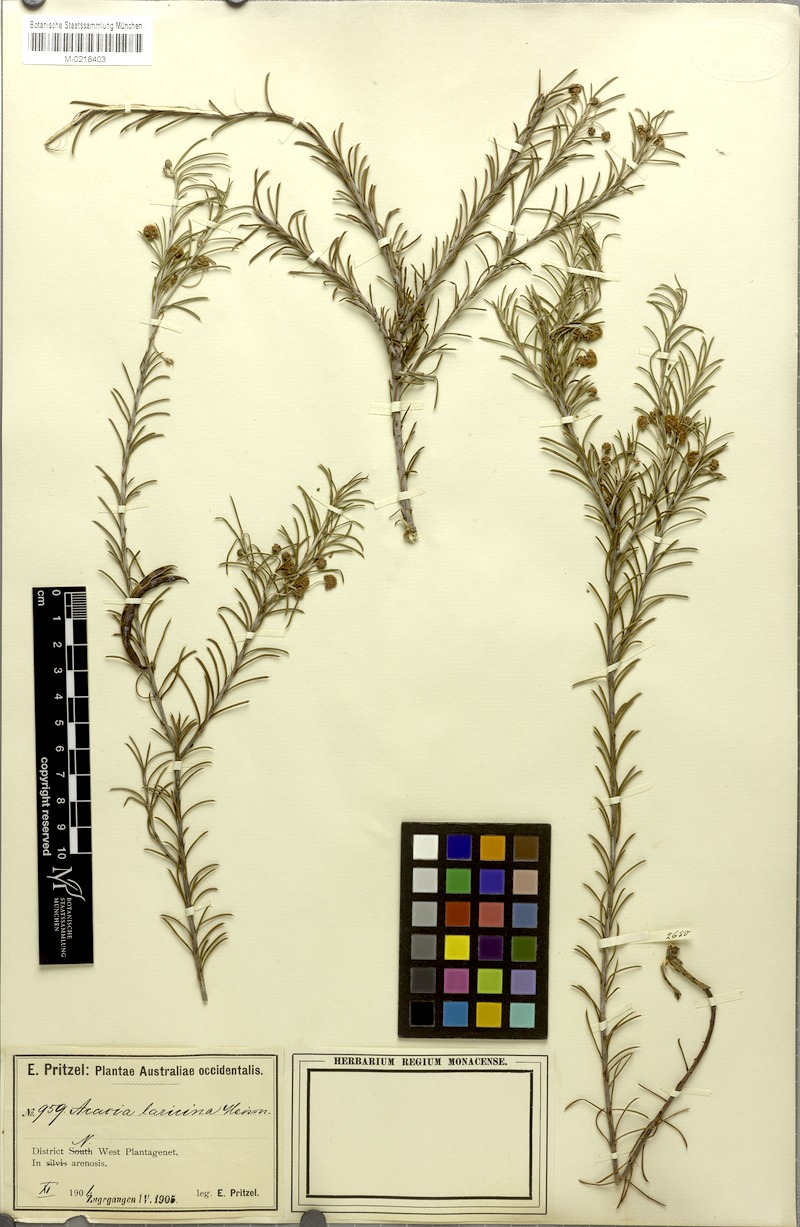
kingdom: Plantae
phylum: Tracheophyta
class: Magnoliopsida
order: Fabales
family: Fabaceae
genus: Acacia
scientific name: Acacia laricina
